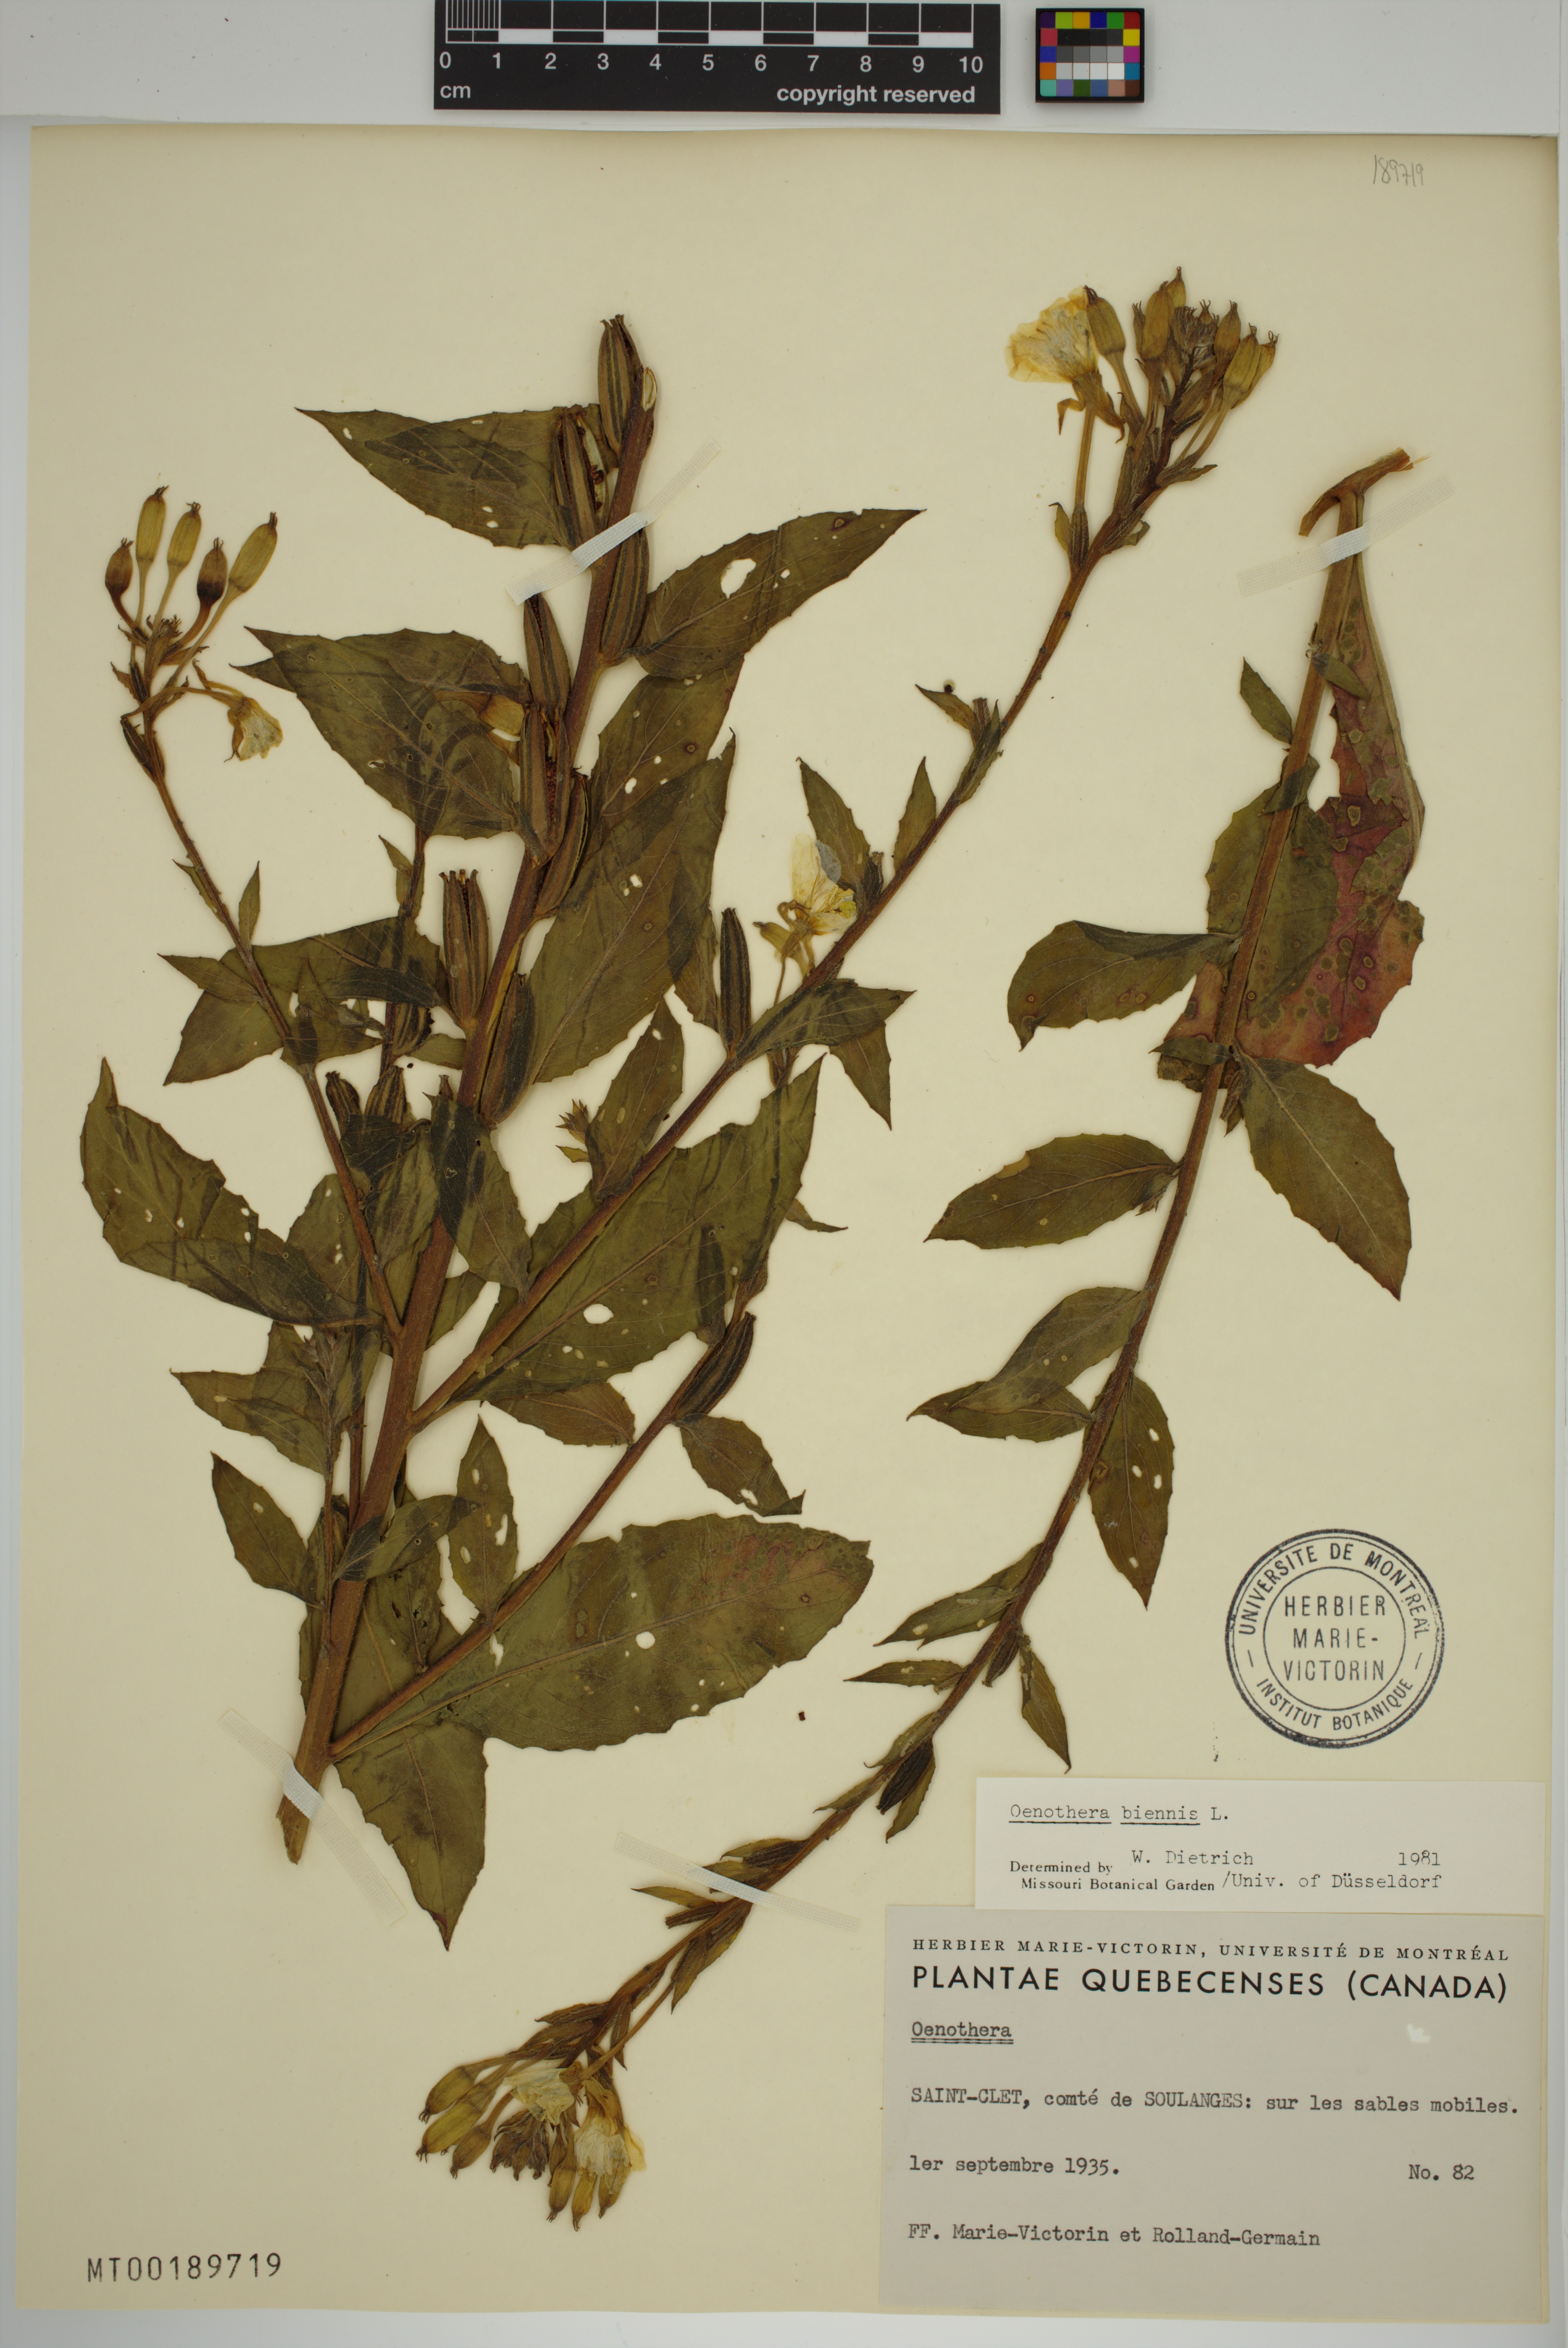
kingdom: Plantae
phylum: Tracheophyta
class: Magnoliopsida
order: Myrtales
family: Onagraceae
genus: Oenothera
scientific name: Oenothera biennis
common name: Common evening-primrose
